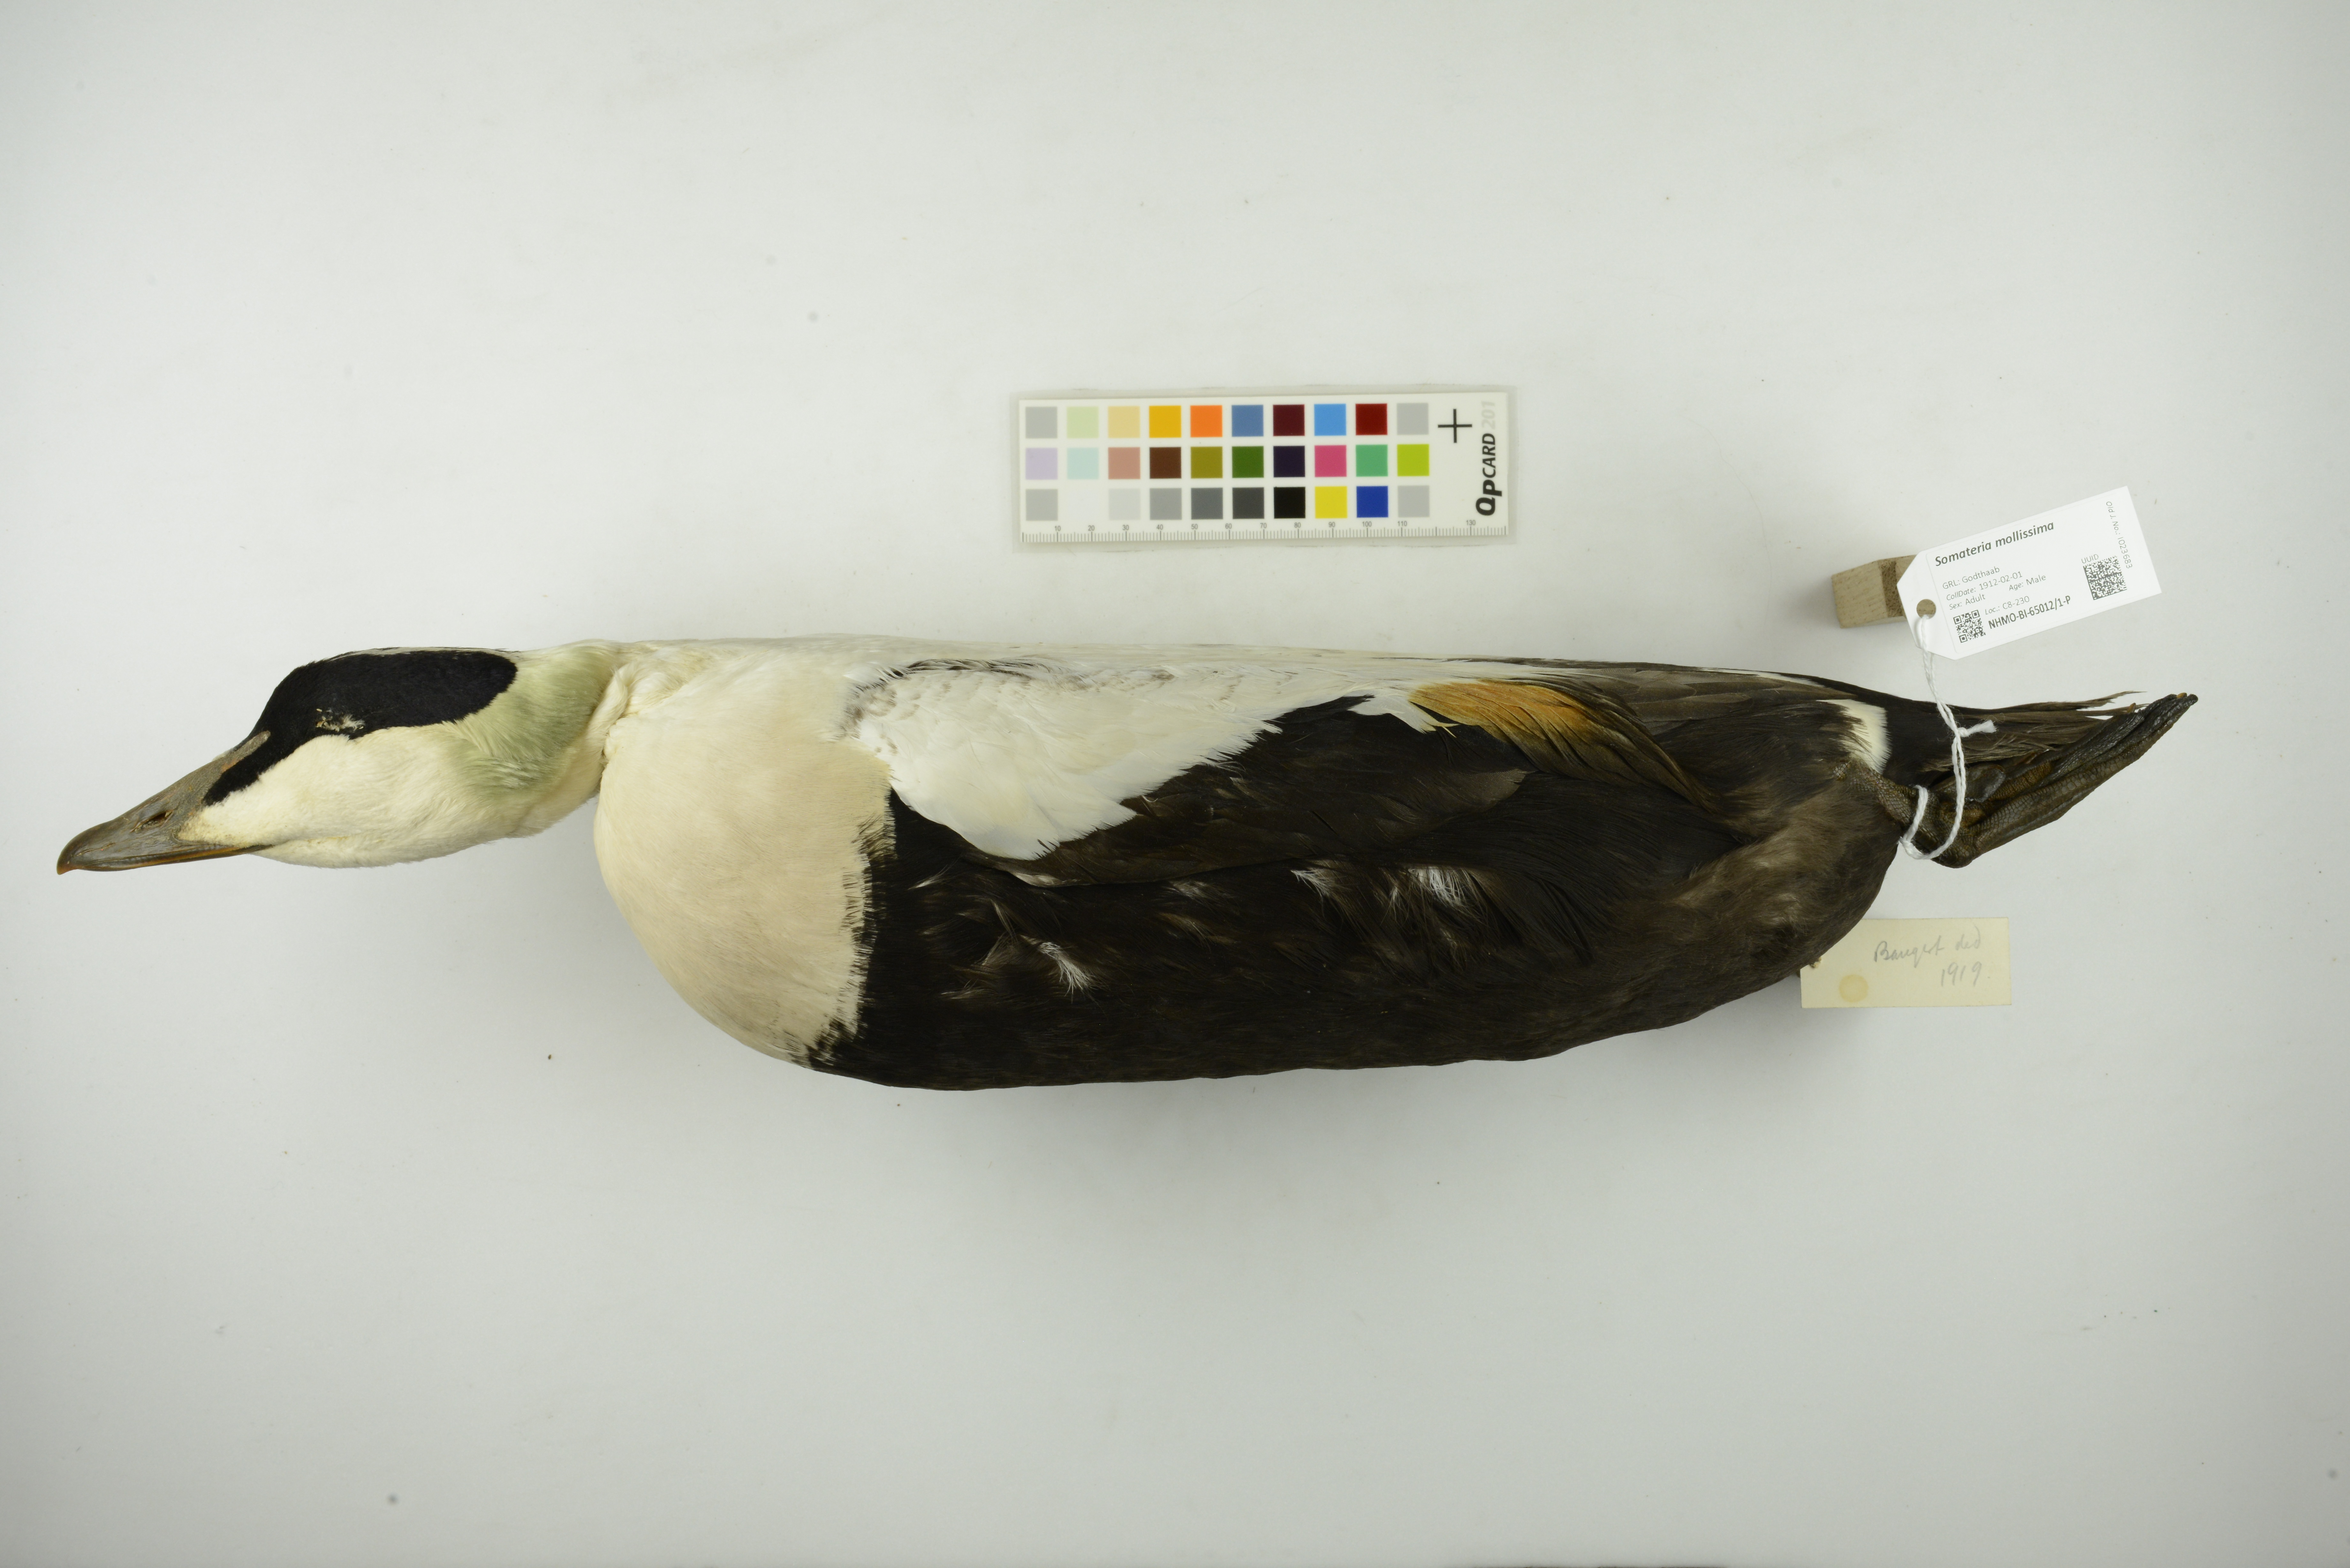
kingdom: Animalia
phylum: Chordata
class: Aves
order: Anseriformes
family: Anatidae
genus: Somateria
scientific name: Somateria mollissima
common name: Common eider
